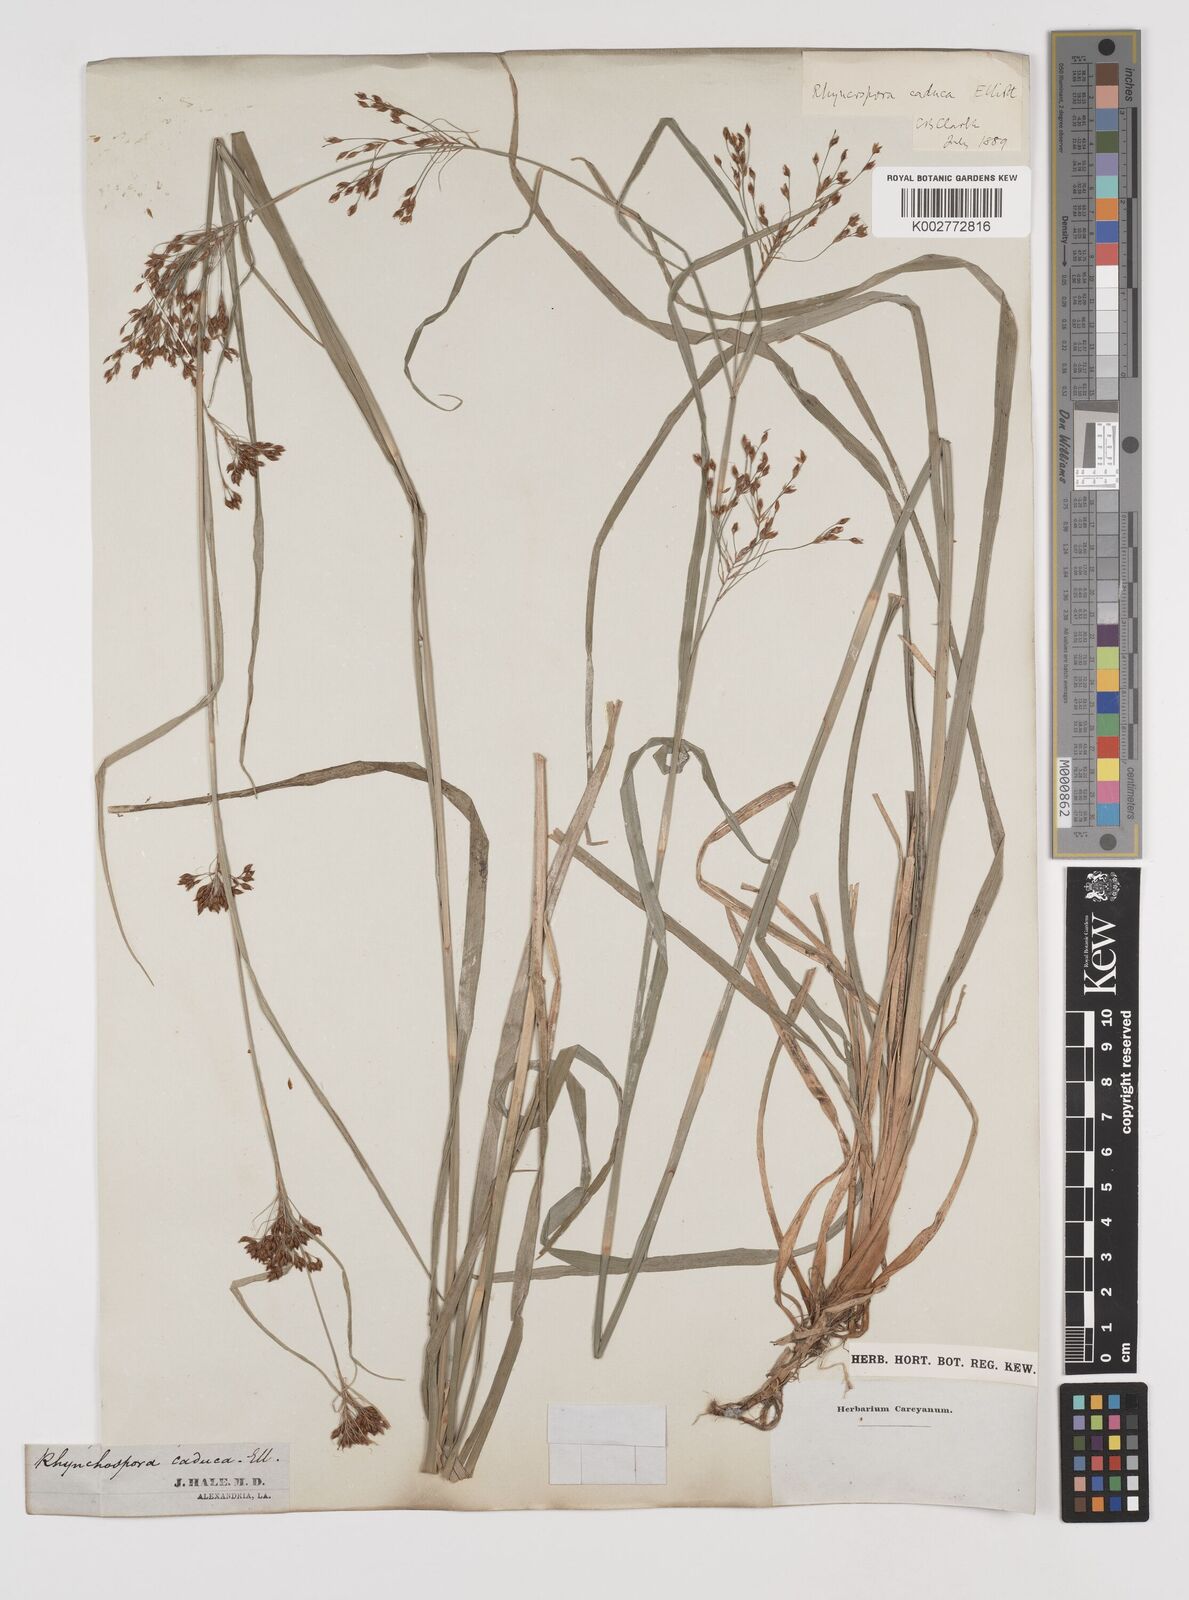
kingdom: Plantae
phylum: Tracheophyta
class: Liliopsida
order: Poales
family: Cyperaceae
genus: Rhynchospora
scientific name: Rhynchospora caduca
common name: Anglestem beaksedge
